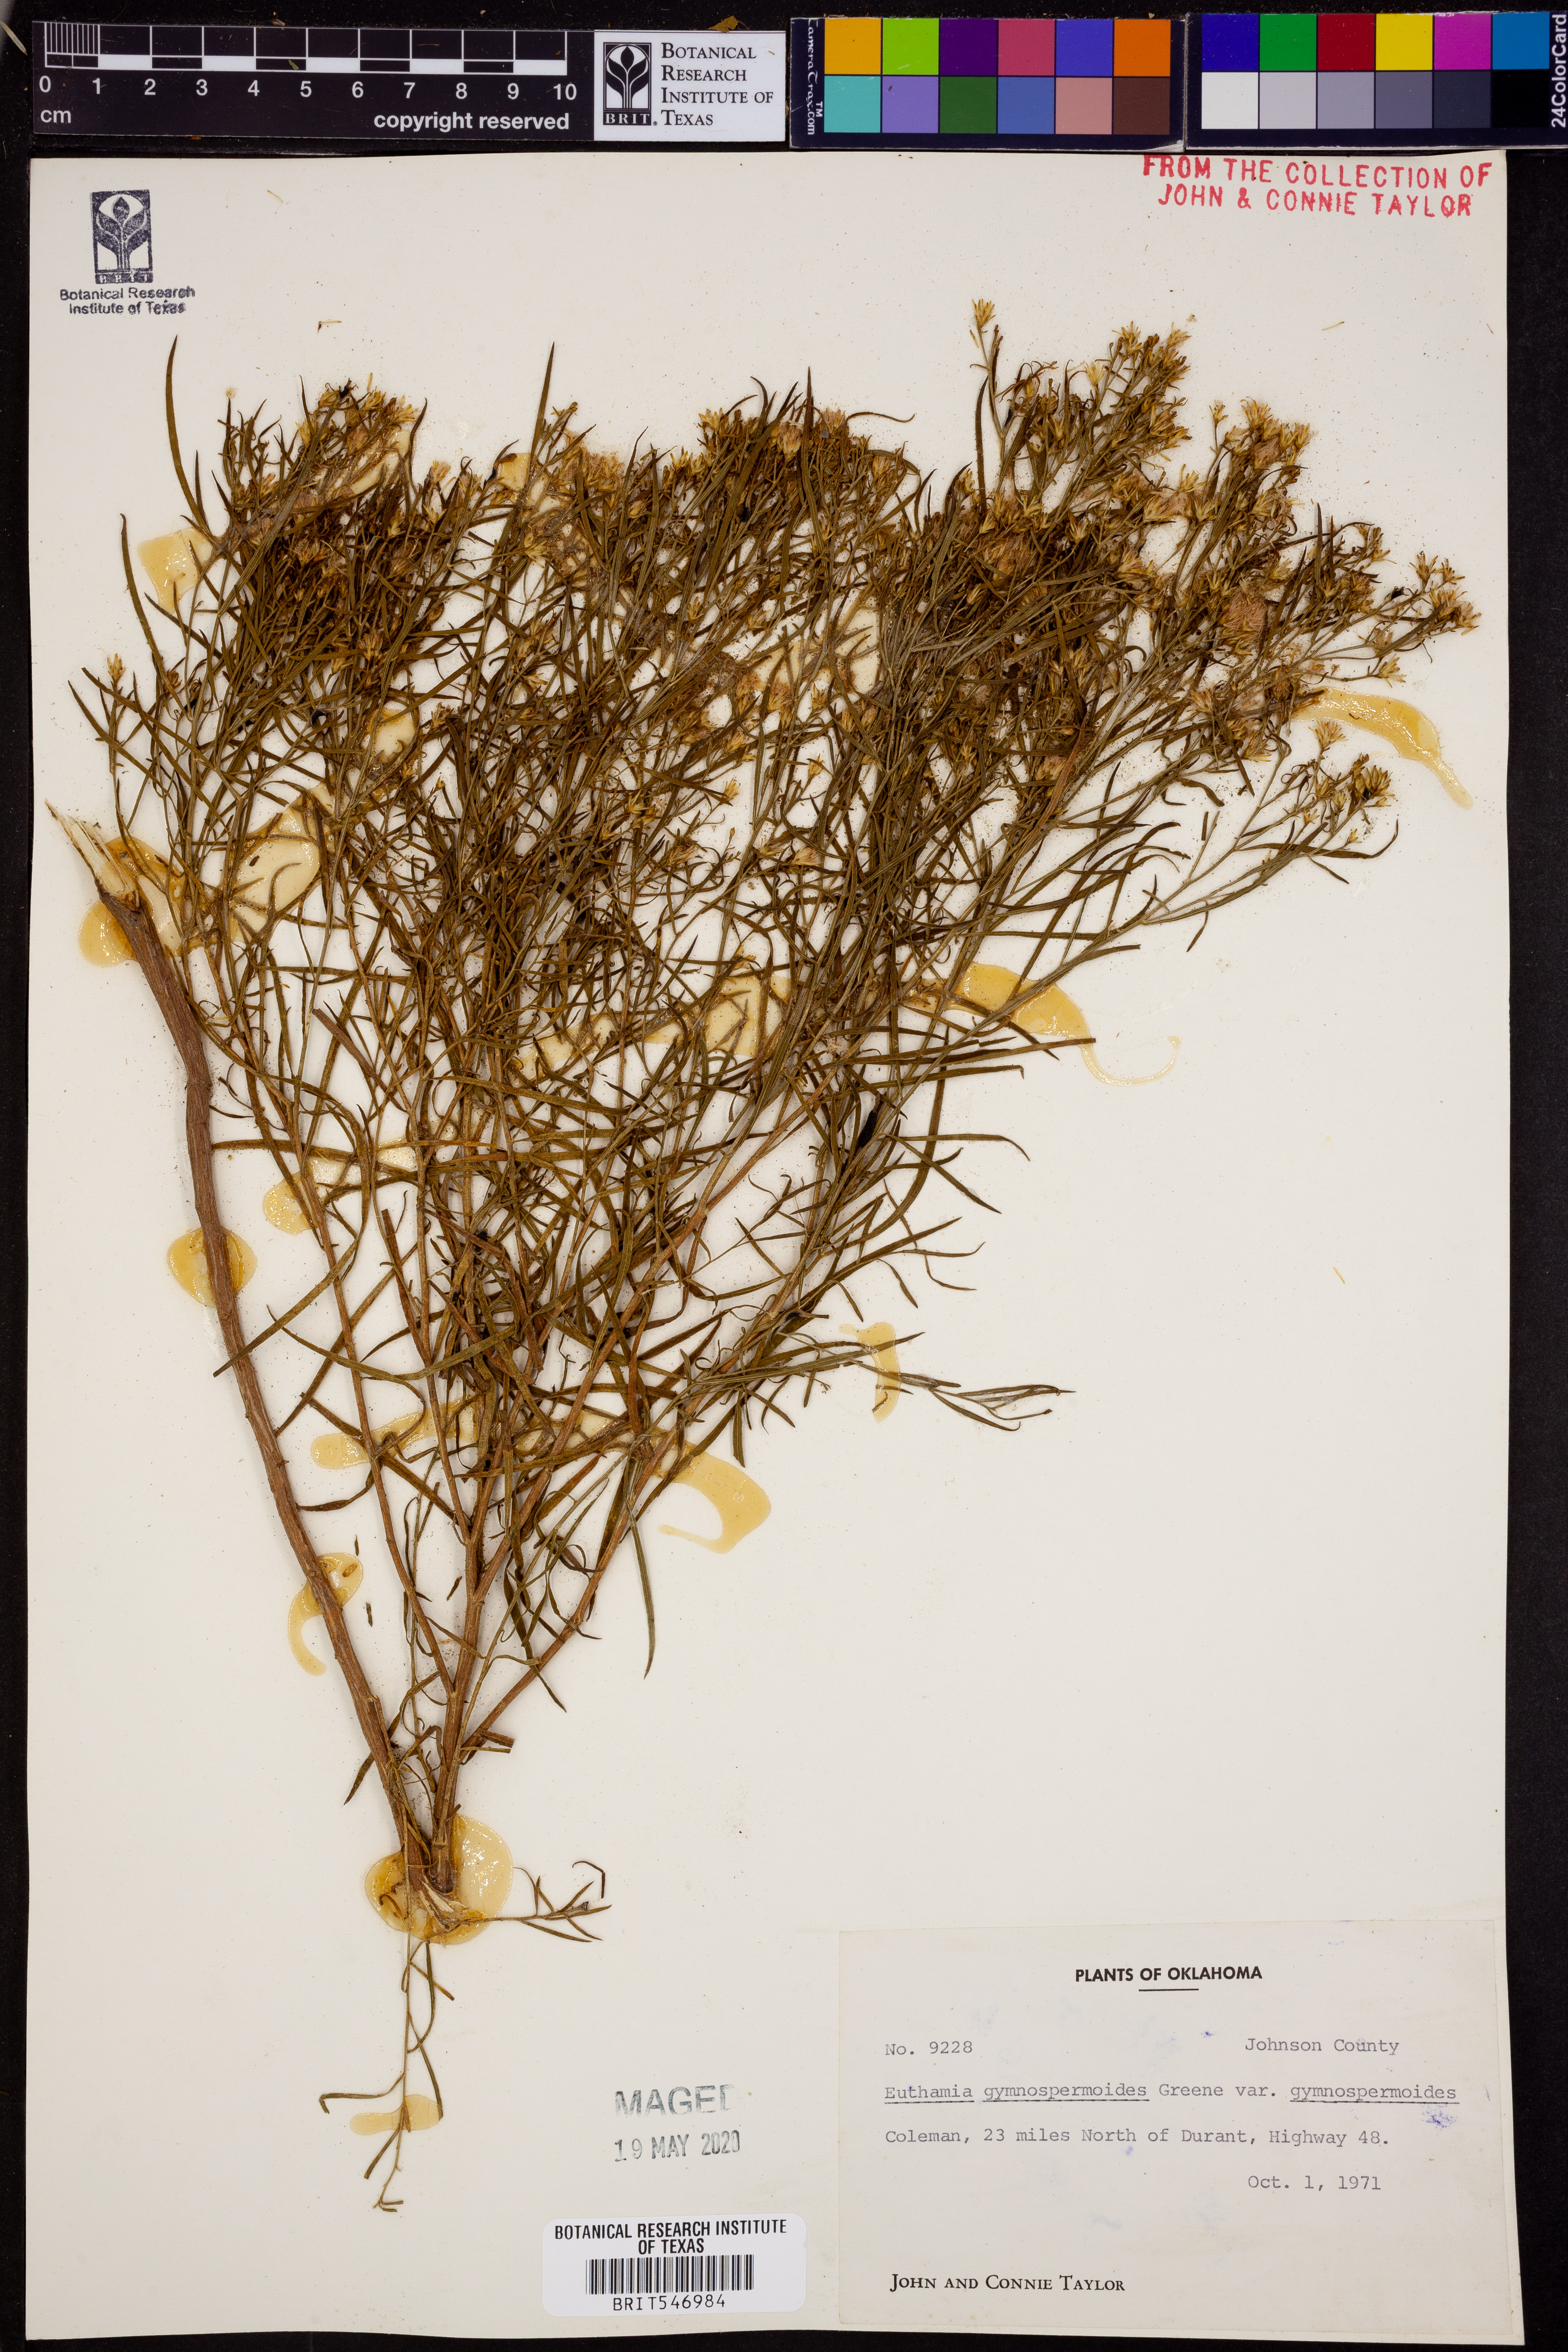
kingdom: Plantae
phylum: Tracheophyta
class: Magnoliopsida
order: Asterales
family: Asteraceae
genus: Euthamia
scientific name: Euthamia gymnospermoides
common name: Great plains goldentop
